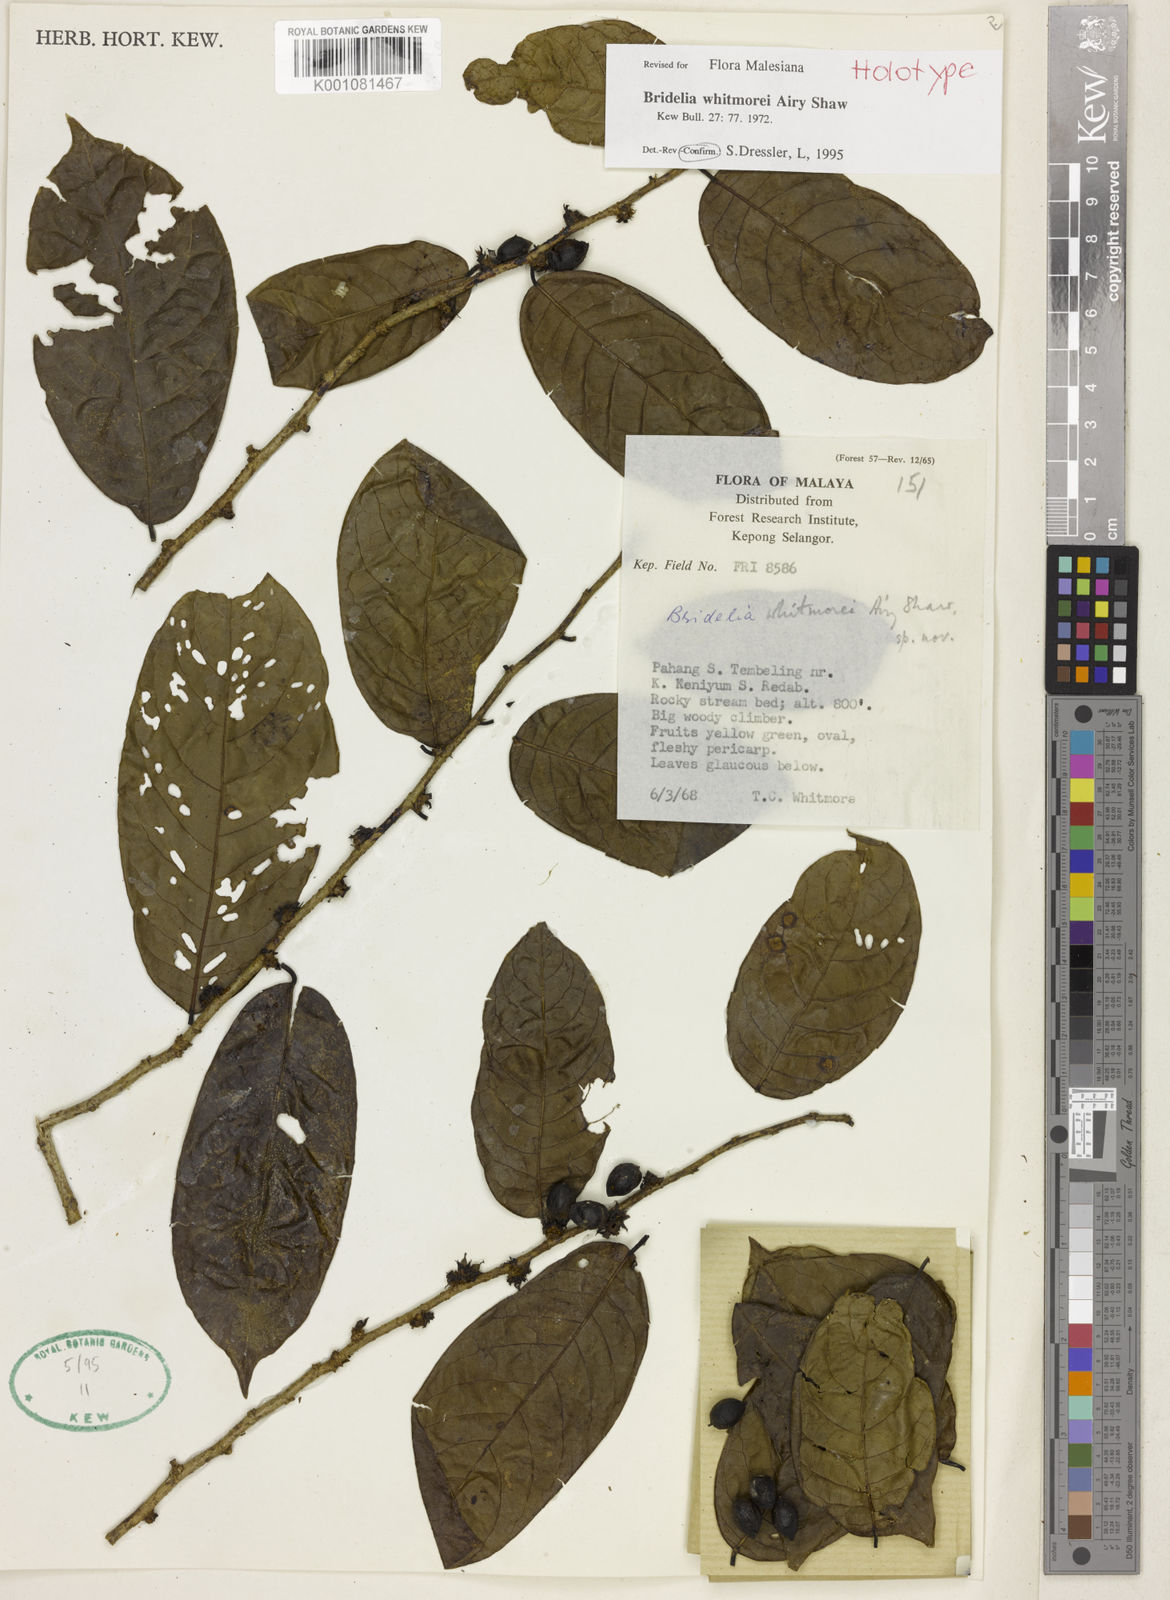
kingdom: Plantae
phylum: Tracheophyta
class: Magnoliopsida
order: Malpighiales
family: Phyllanthaceae
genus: Bridelia
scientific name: Bridelia whitmorei
